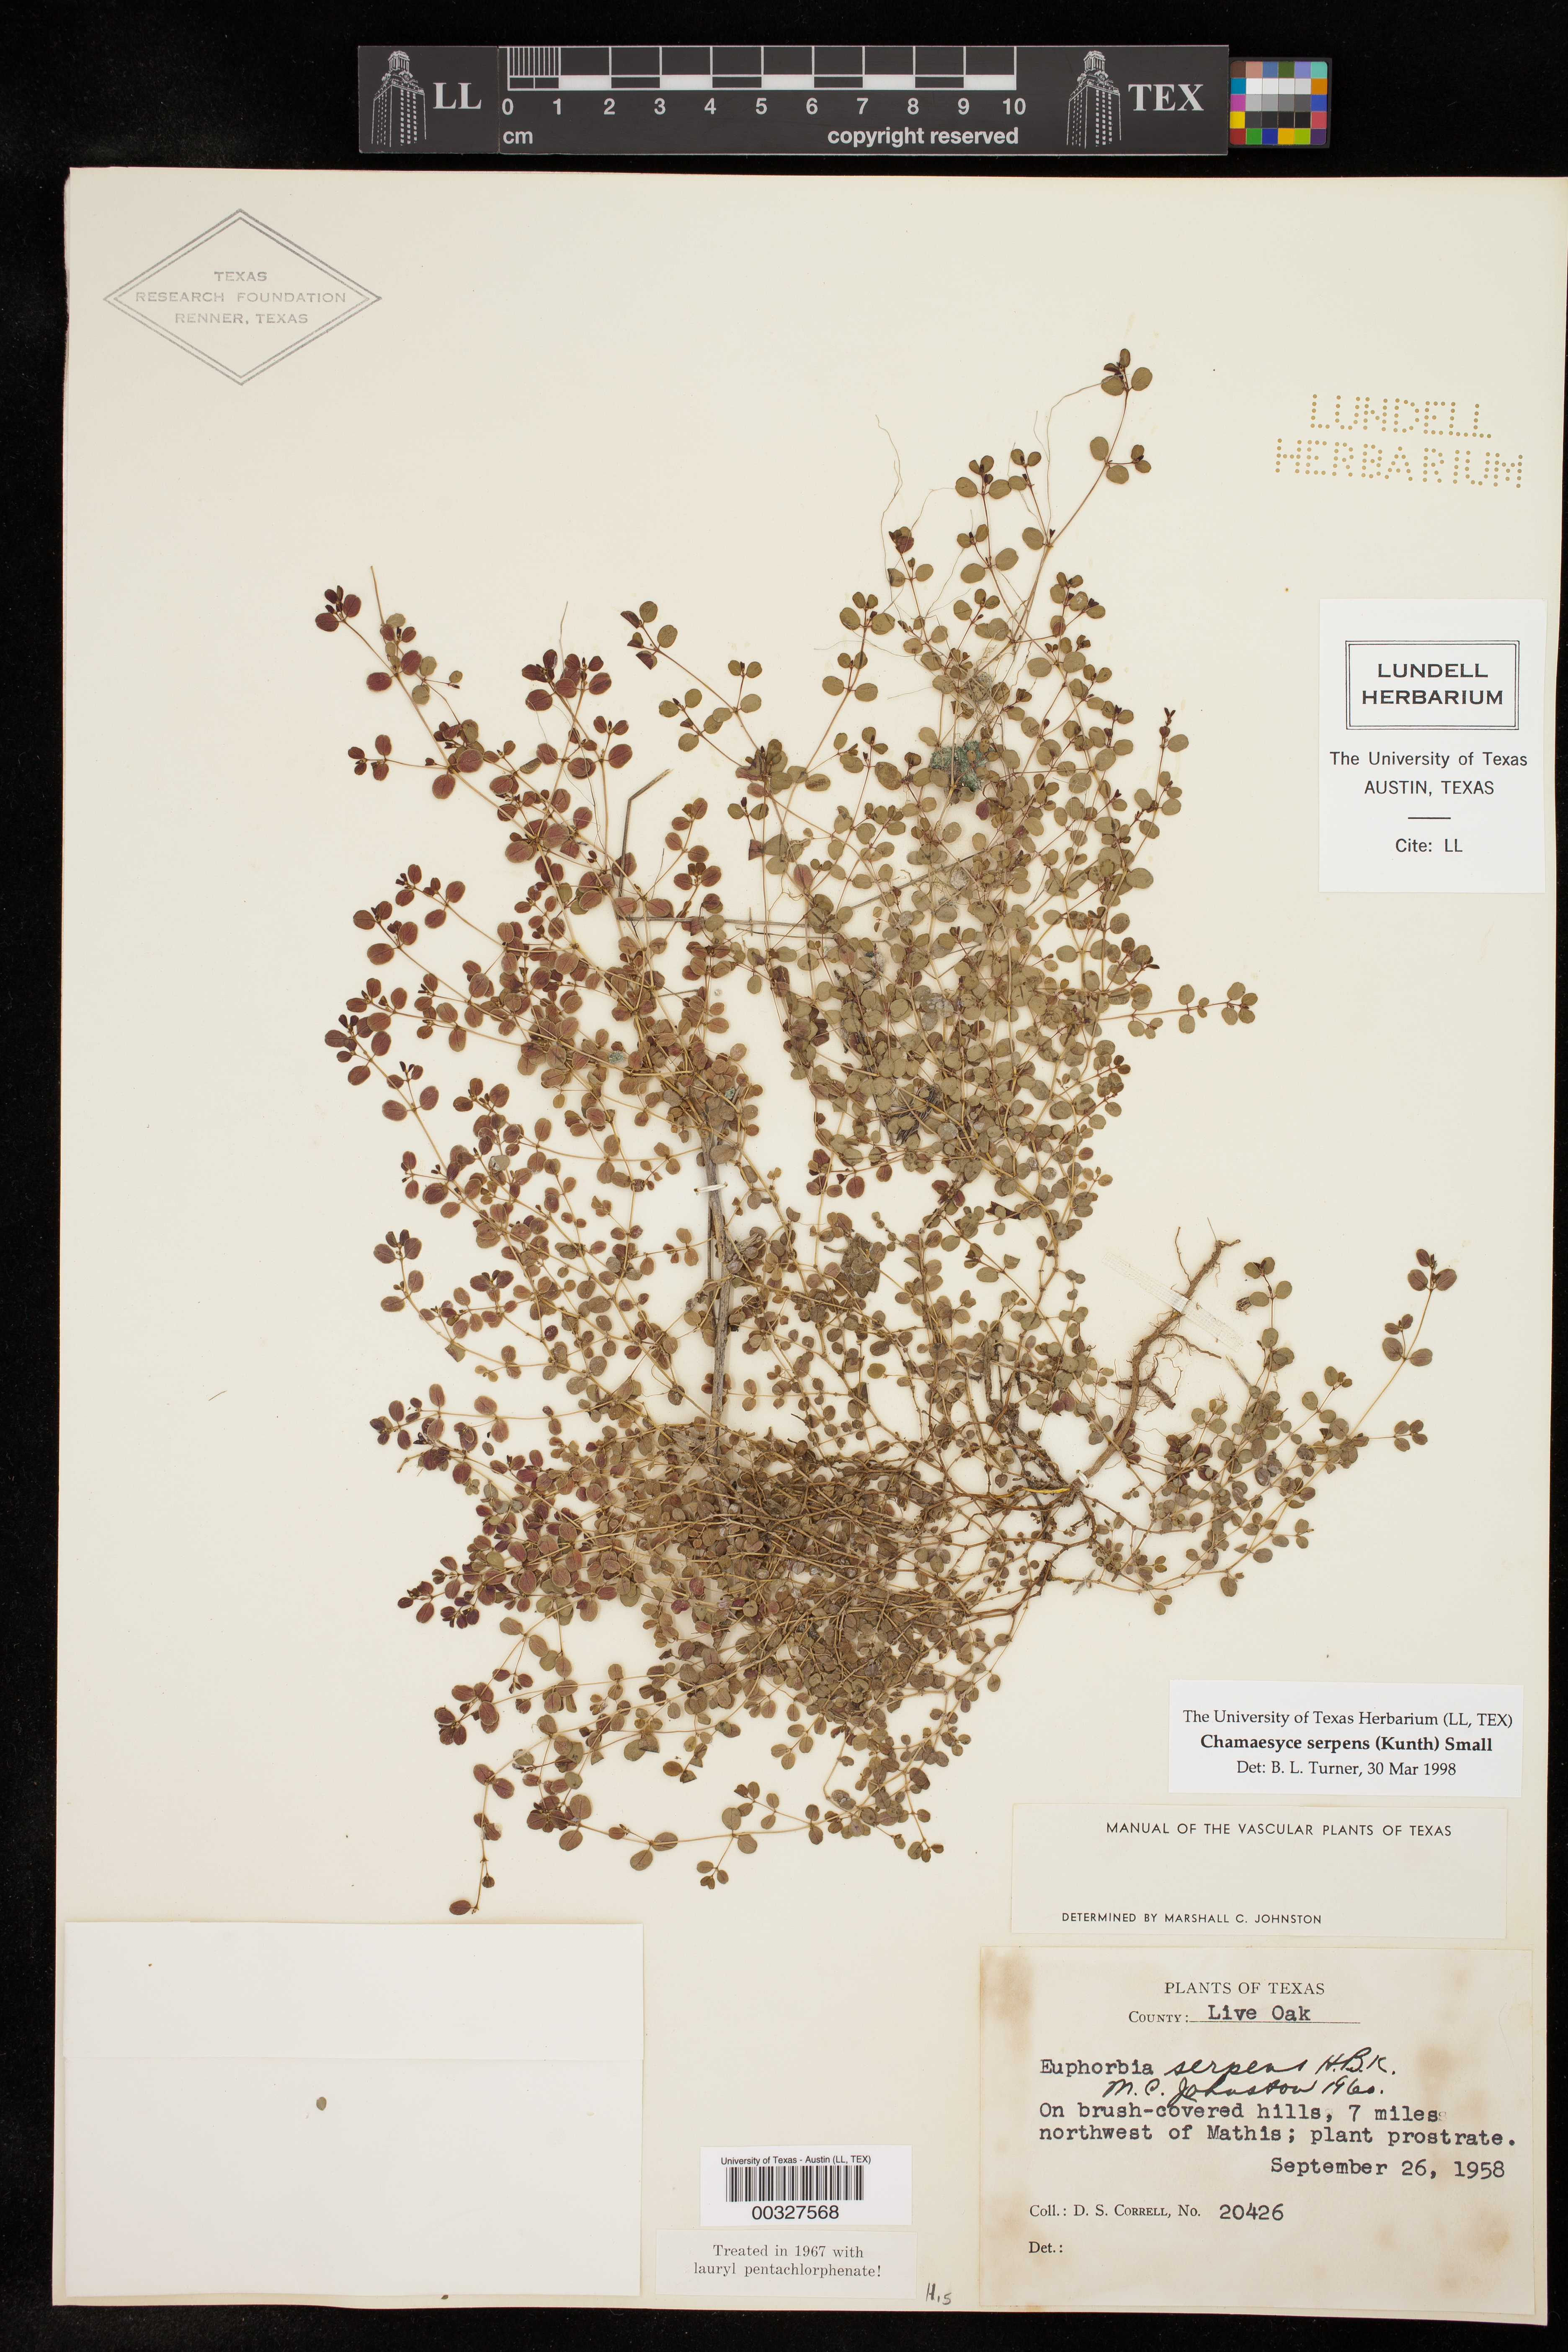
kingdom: Plantae
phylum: Tracheophyta
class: Magnoliopsida
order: Malpighiales
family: Euphorbiaceae
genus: Euphorbia
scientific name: Euphorbia serpens
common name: Matted sandmat
